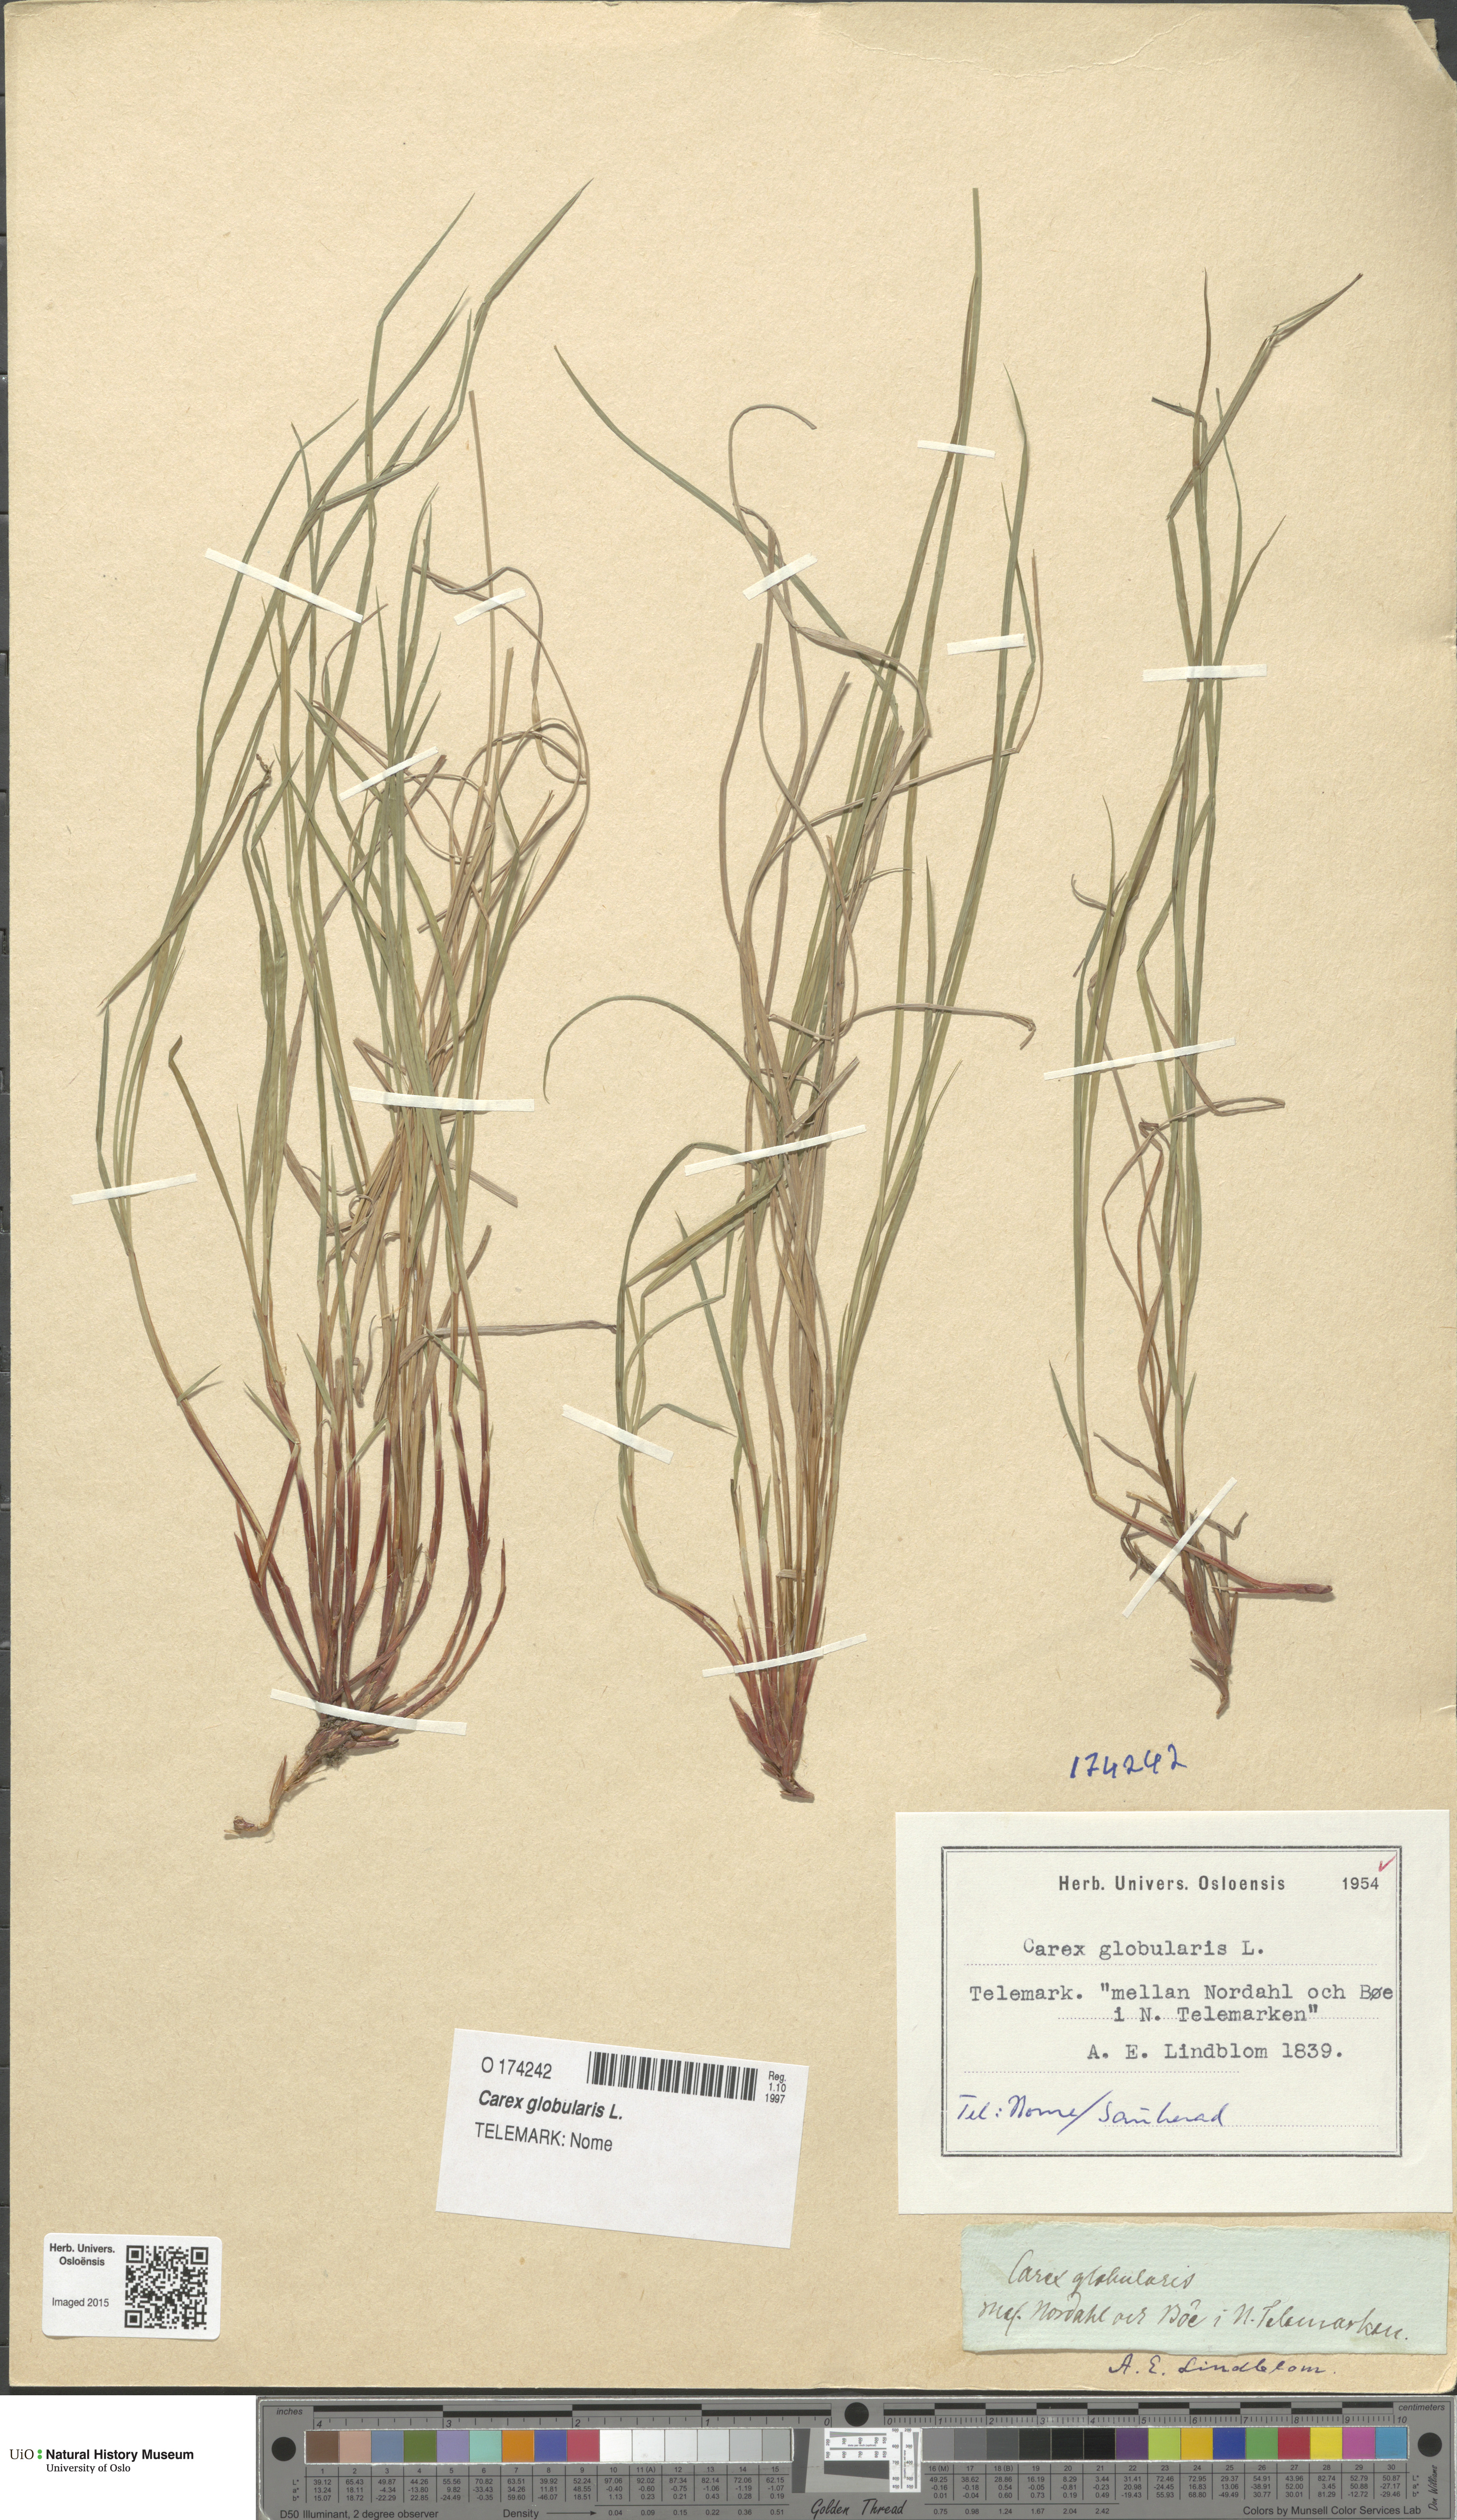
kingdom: Plantae
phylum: Tracheophyta
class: Liliopsida
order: Poales
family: Cyperaceae
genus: Carex
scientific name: Carex globularis
